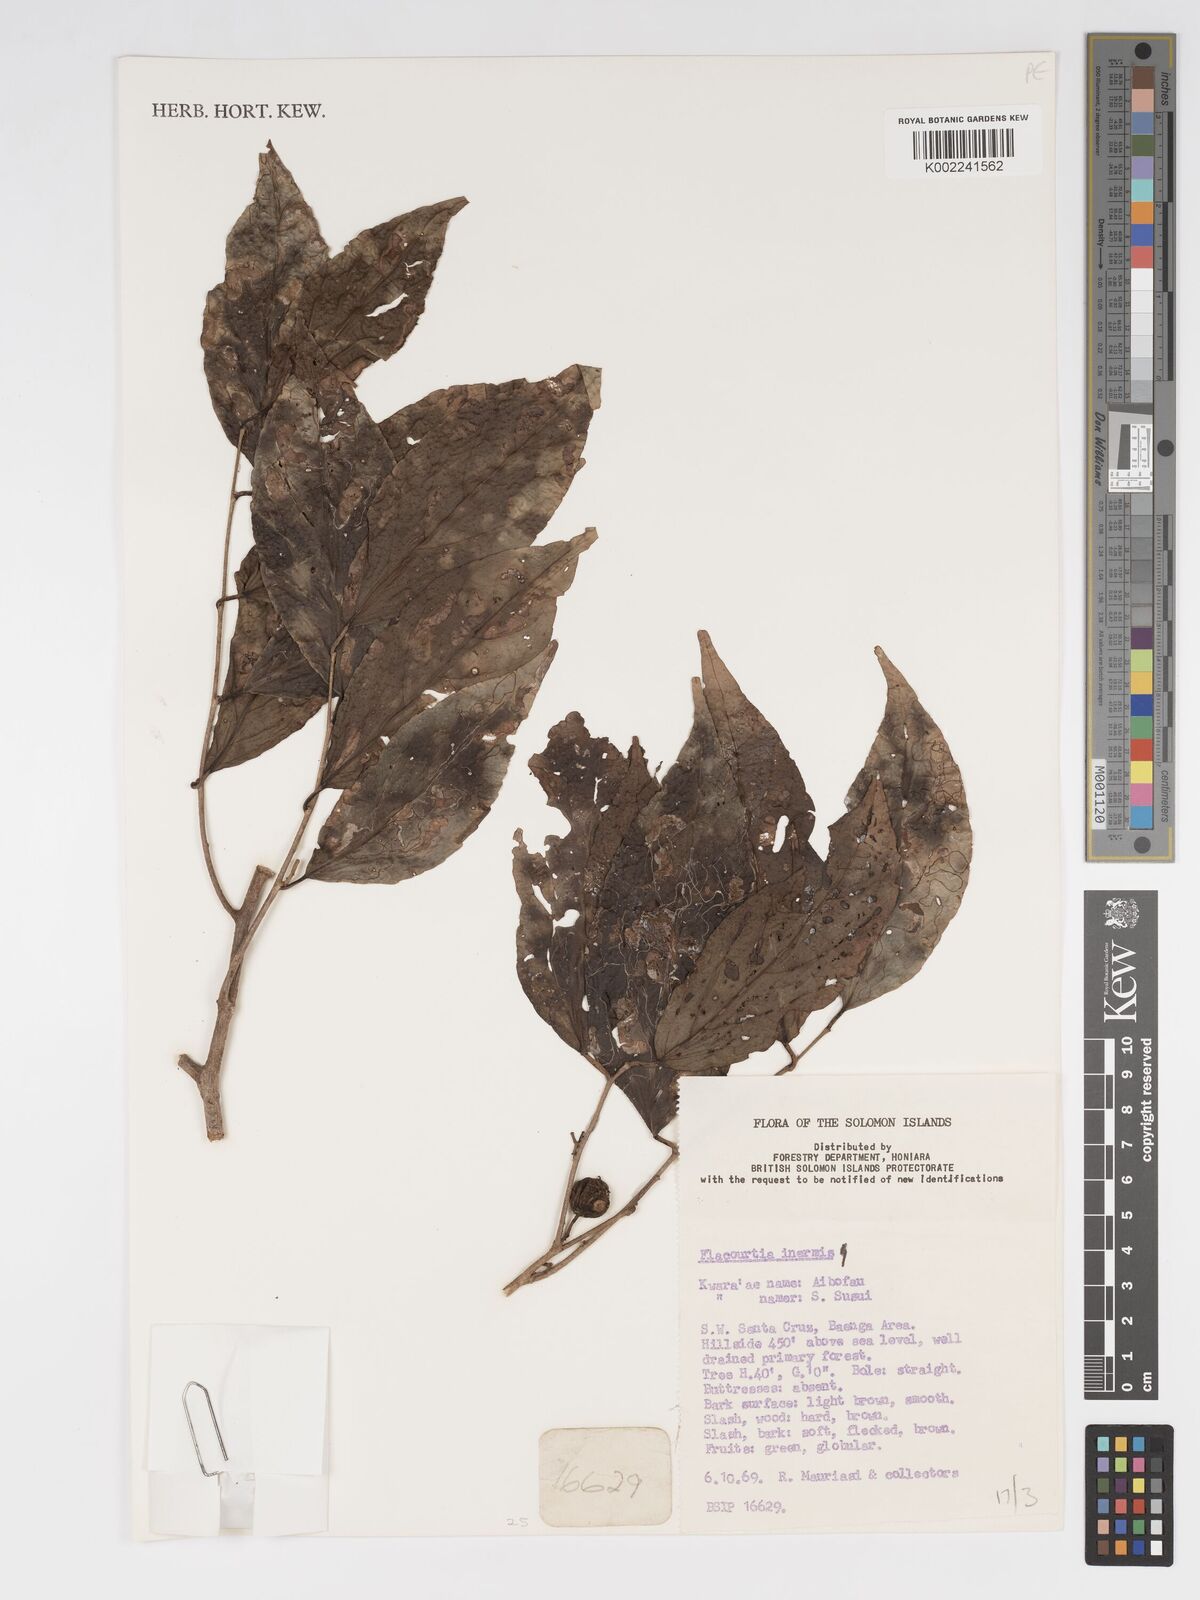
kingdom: Plantae
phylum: Tracheophyta
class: Magnoliopsida
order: Malpighiales
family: Salicaceae
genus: Flacourtia
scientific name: Flacourtia inermis
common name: Plum-of-martinique
